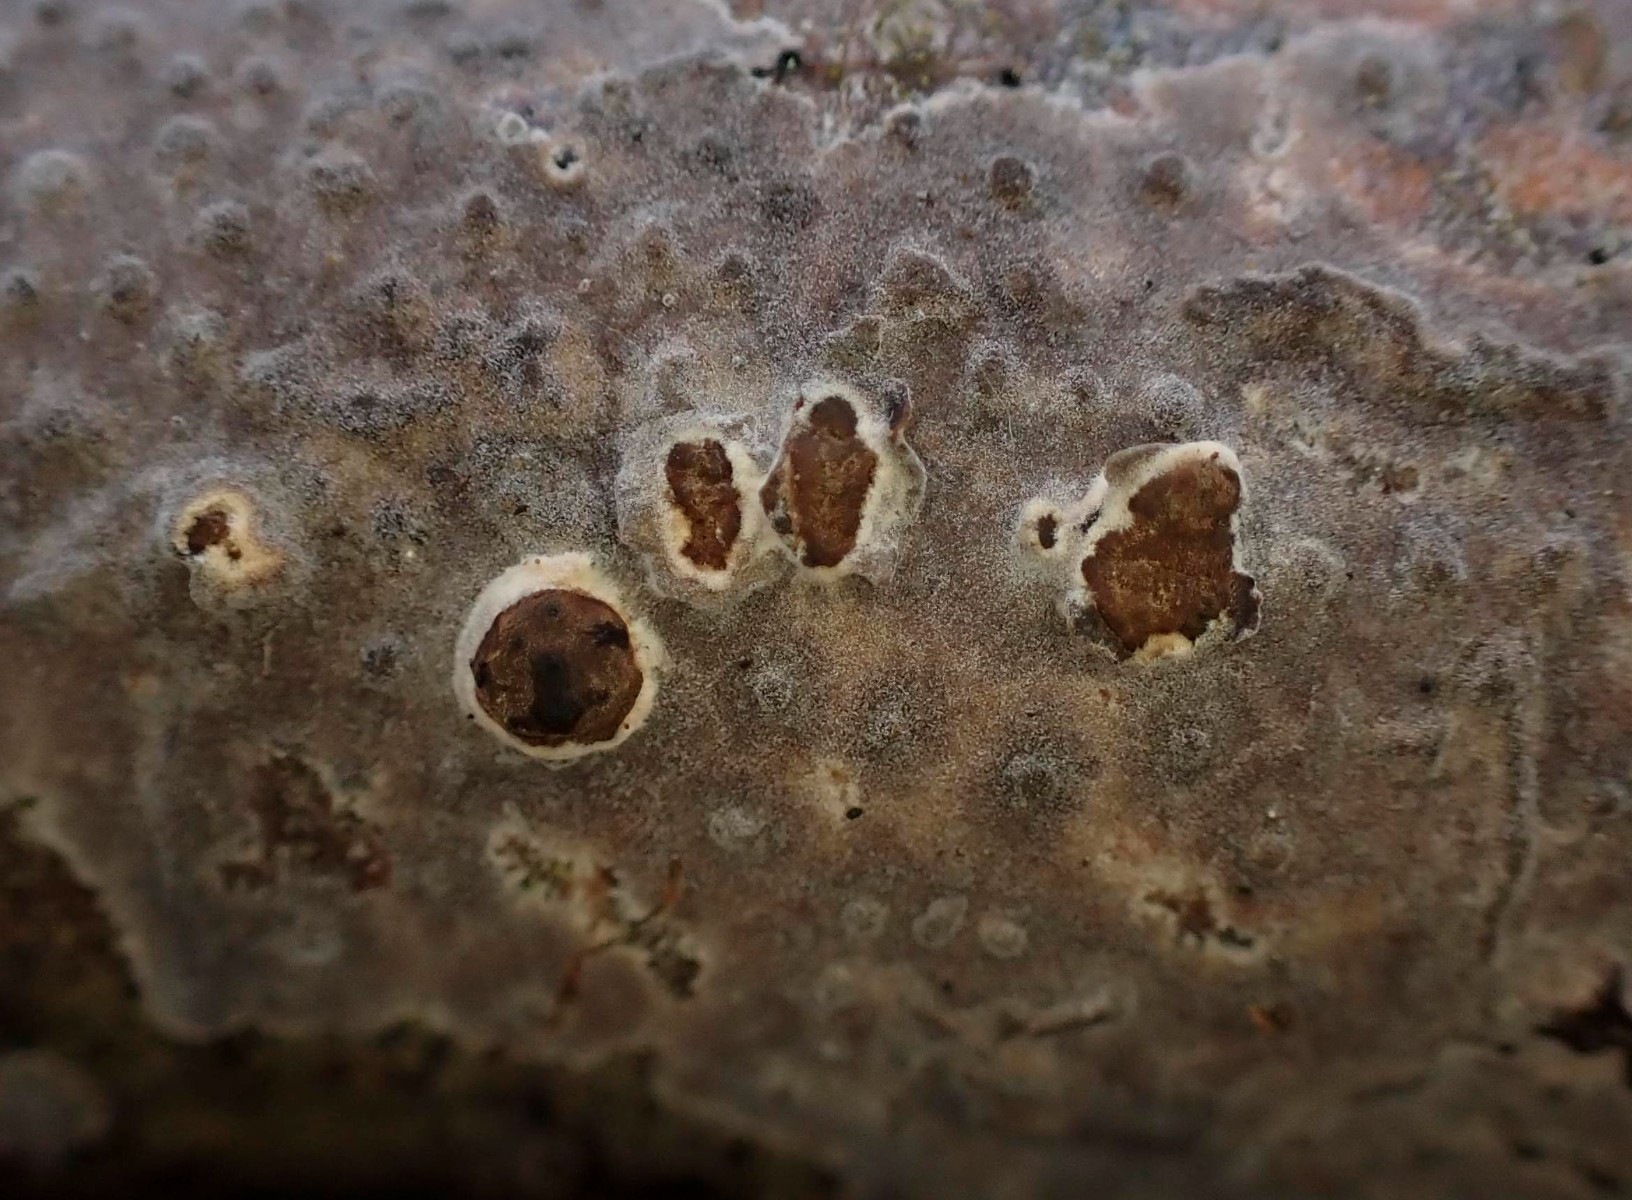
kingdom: Fungi
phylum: Basidiomycota
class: Agaricomycetes
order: Russulales
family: Peniophoraceae
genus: Peniophora
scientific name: Peniophora
